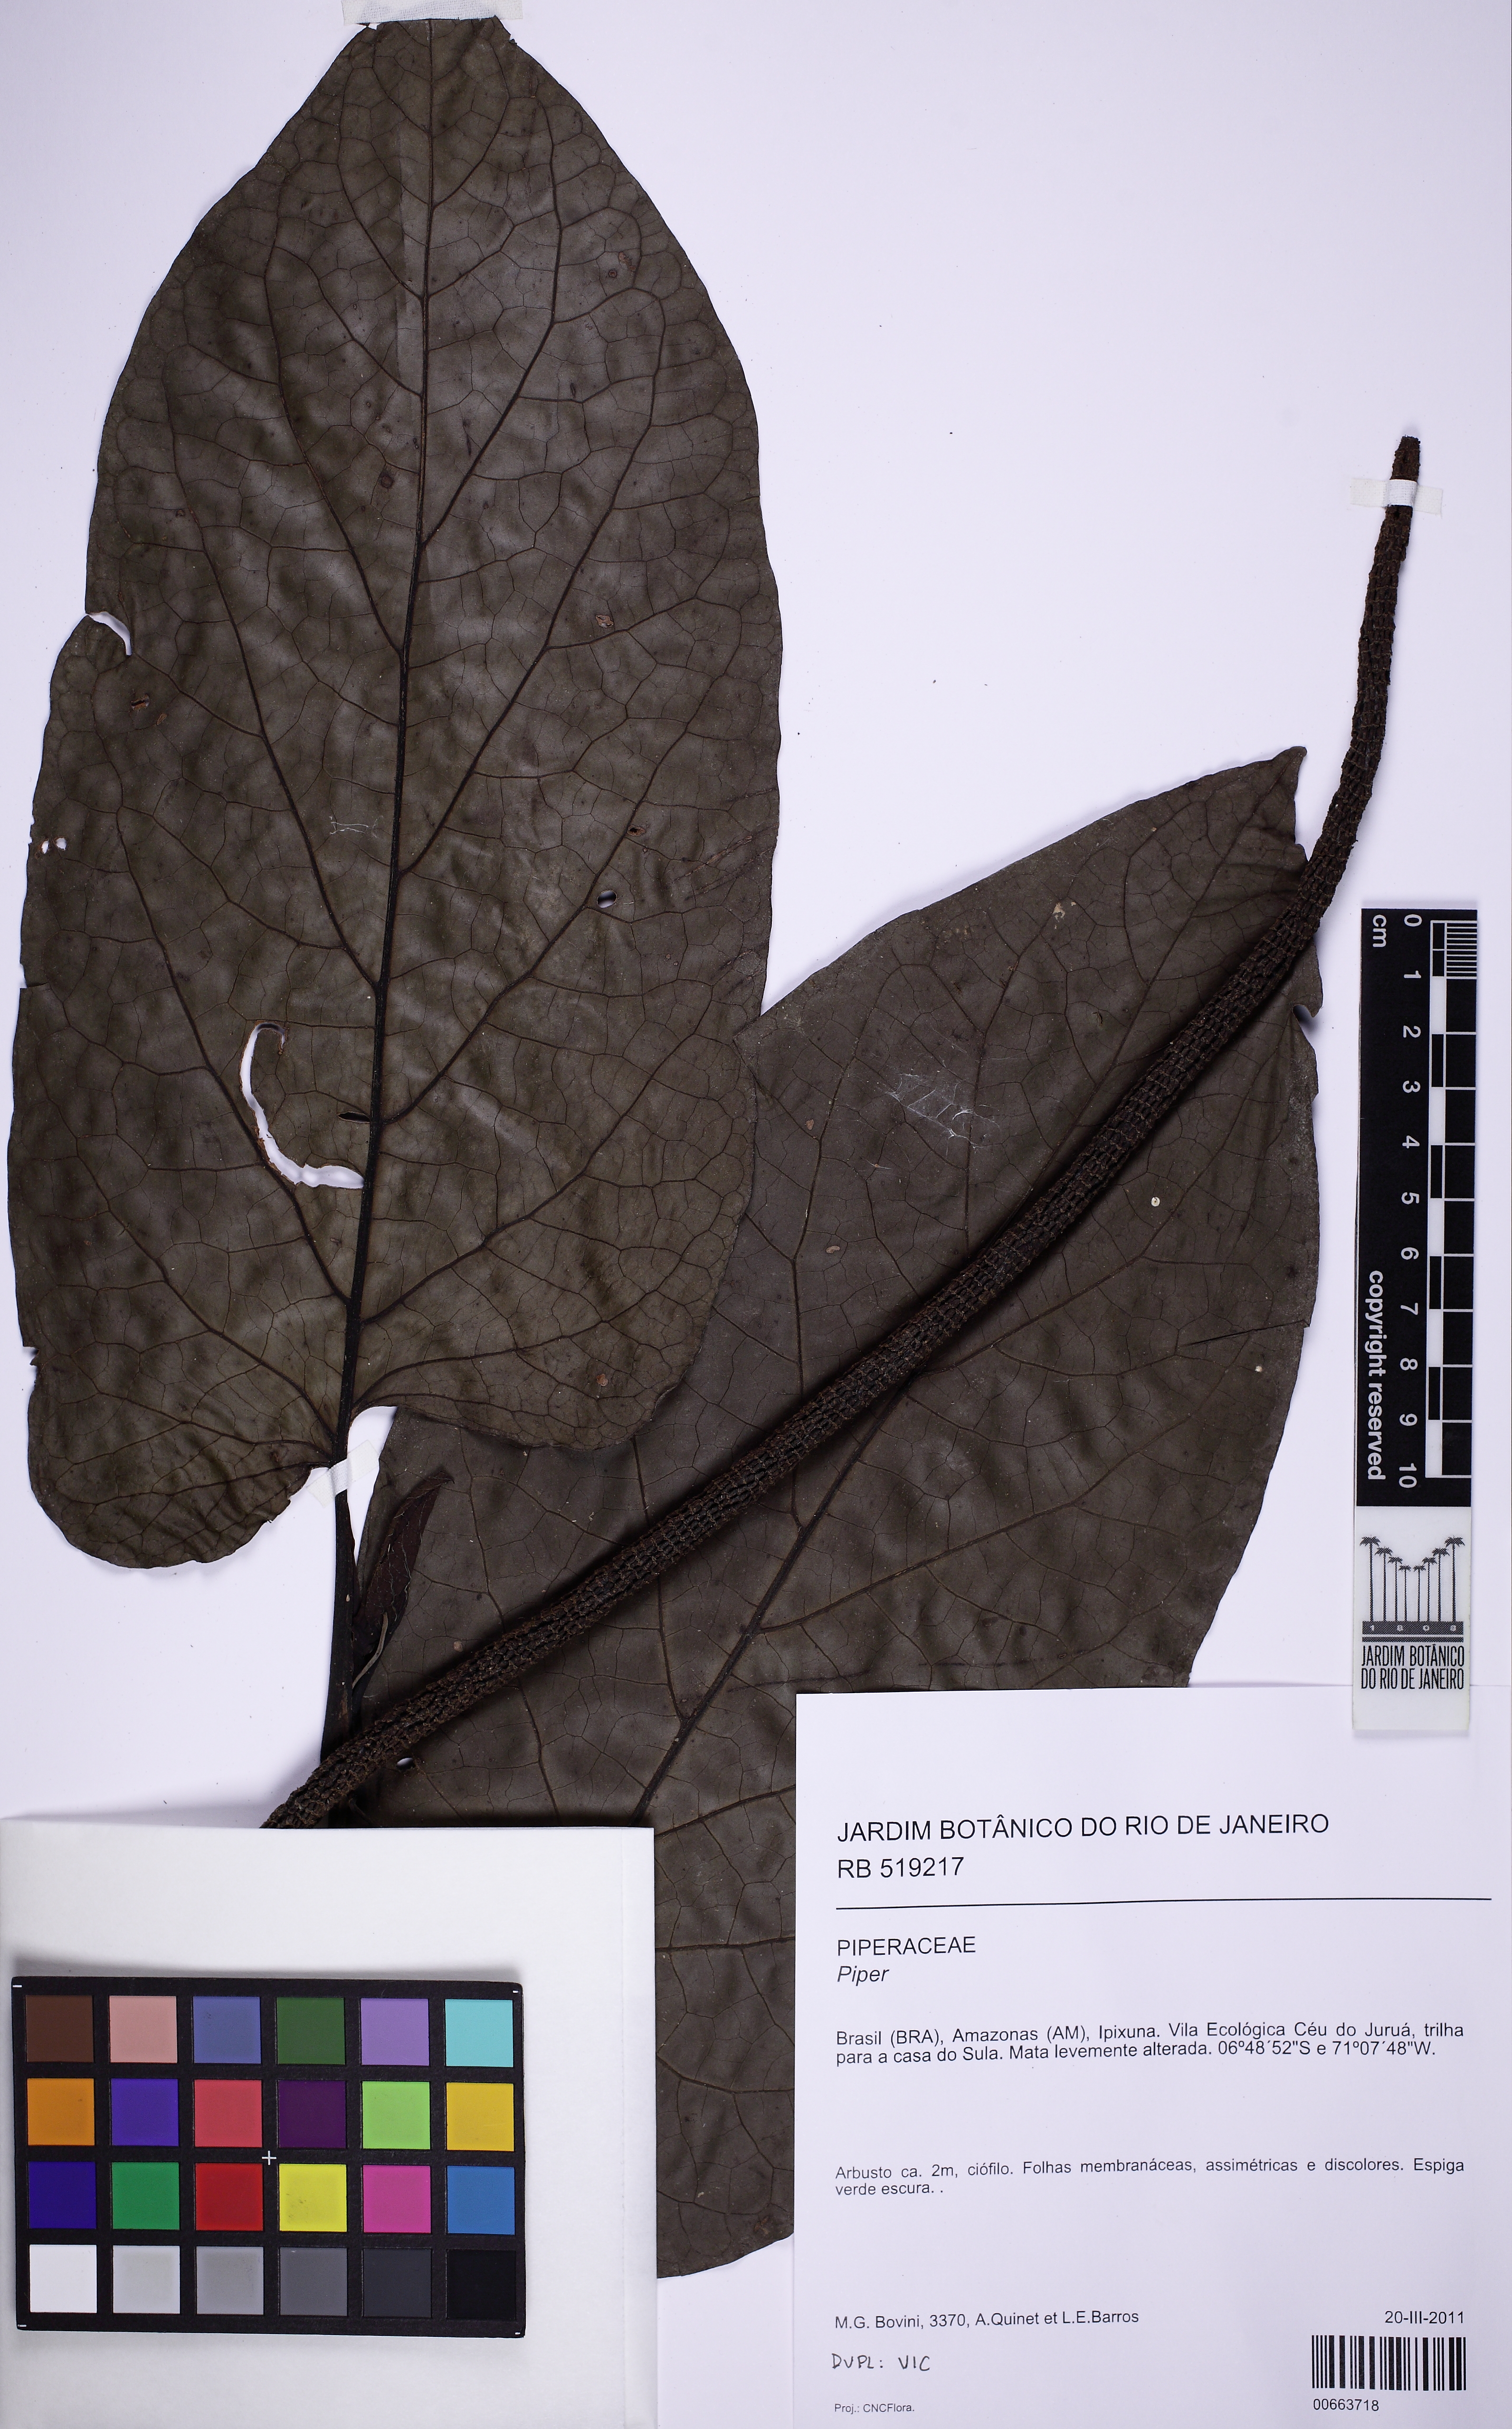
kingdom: Plantae
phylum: Tracheophyta
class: Magnoliopsida
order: Piperales
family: Piperaceae
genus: Piper
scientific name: Piper
